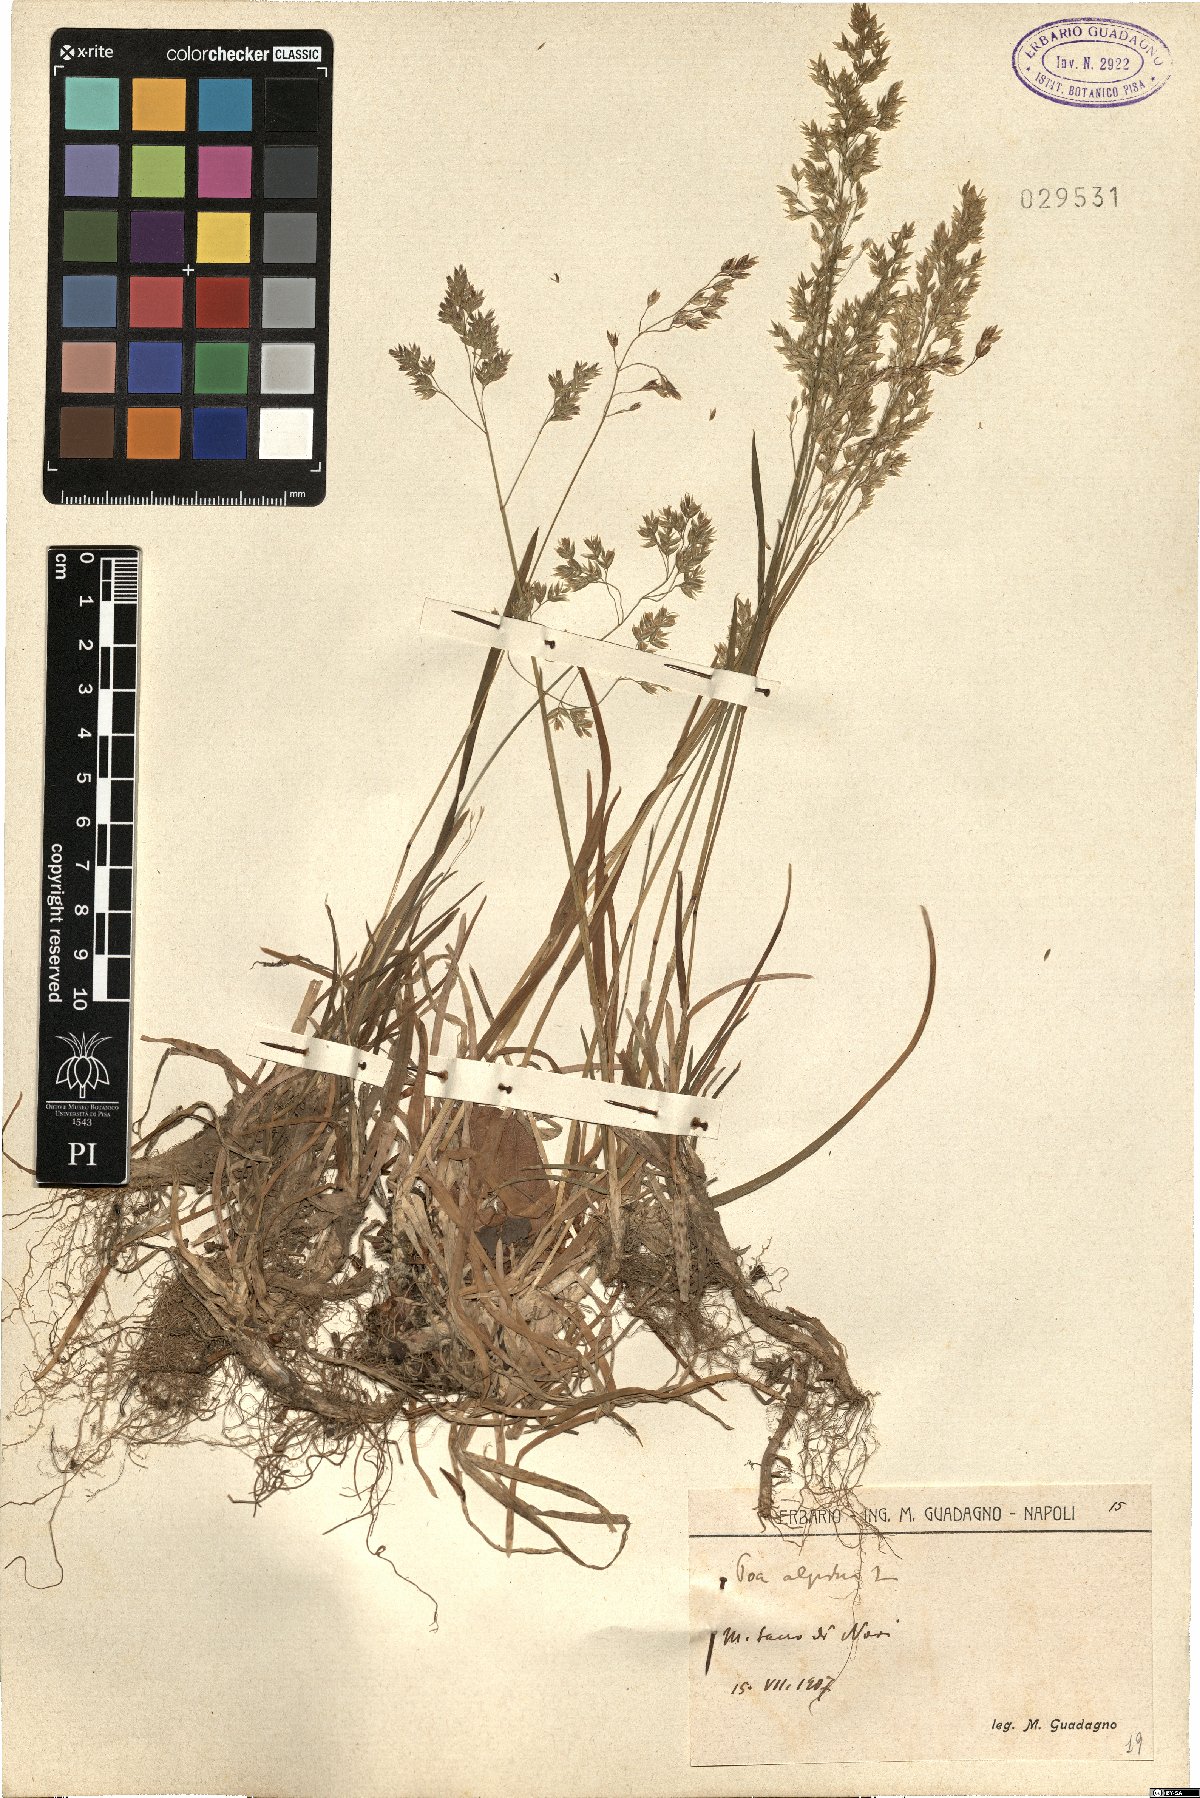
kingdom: Plantae
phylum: Tracheophyta
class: Liliopsida
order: Poales
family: Poaceae
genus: Poa
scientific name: Poa alpina
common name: Alpine bluegrass
